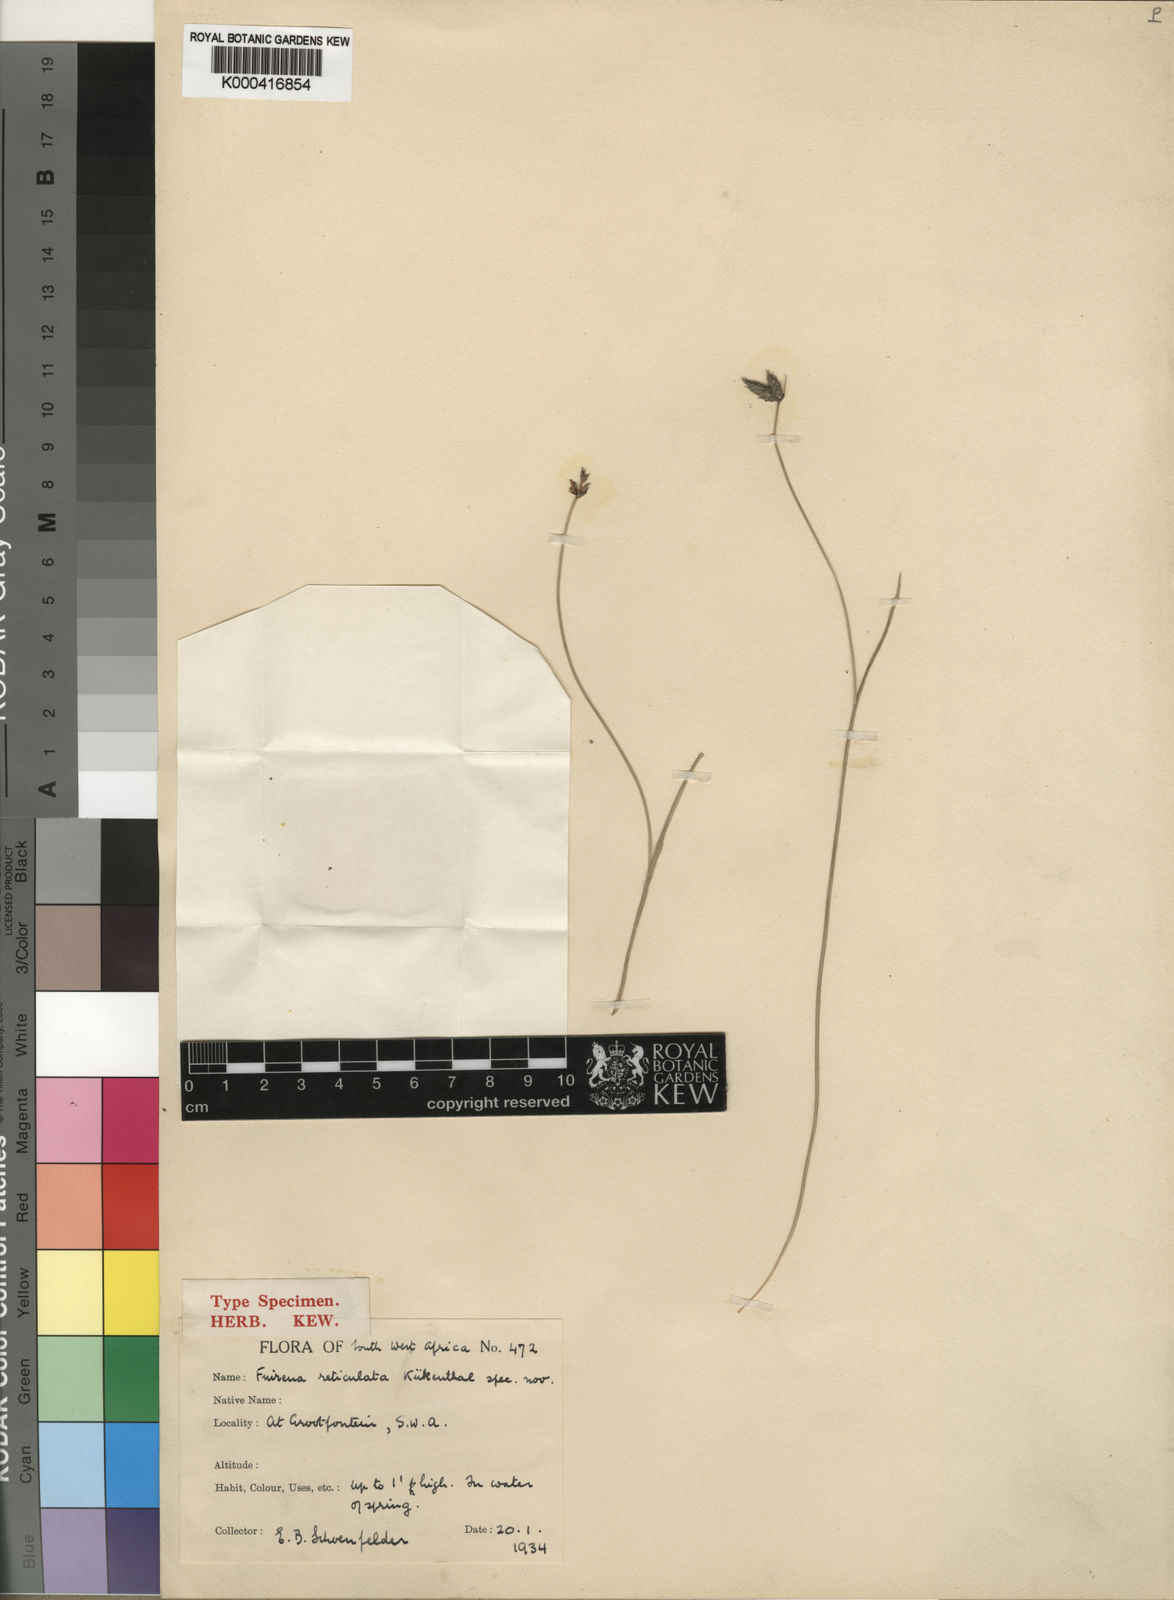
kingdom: Plantae
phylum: Tracheophyta
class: Liliopsida
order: Poales
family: Cyperaceae
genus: Fuirena
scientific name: Fuirena
